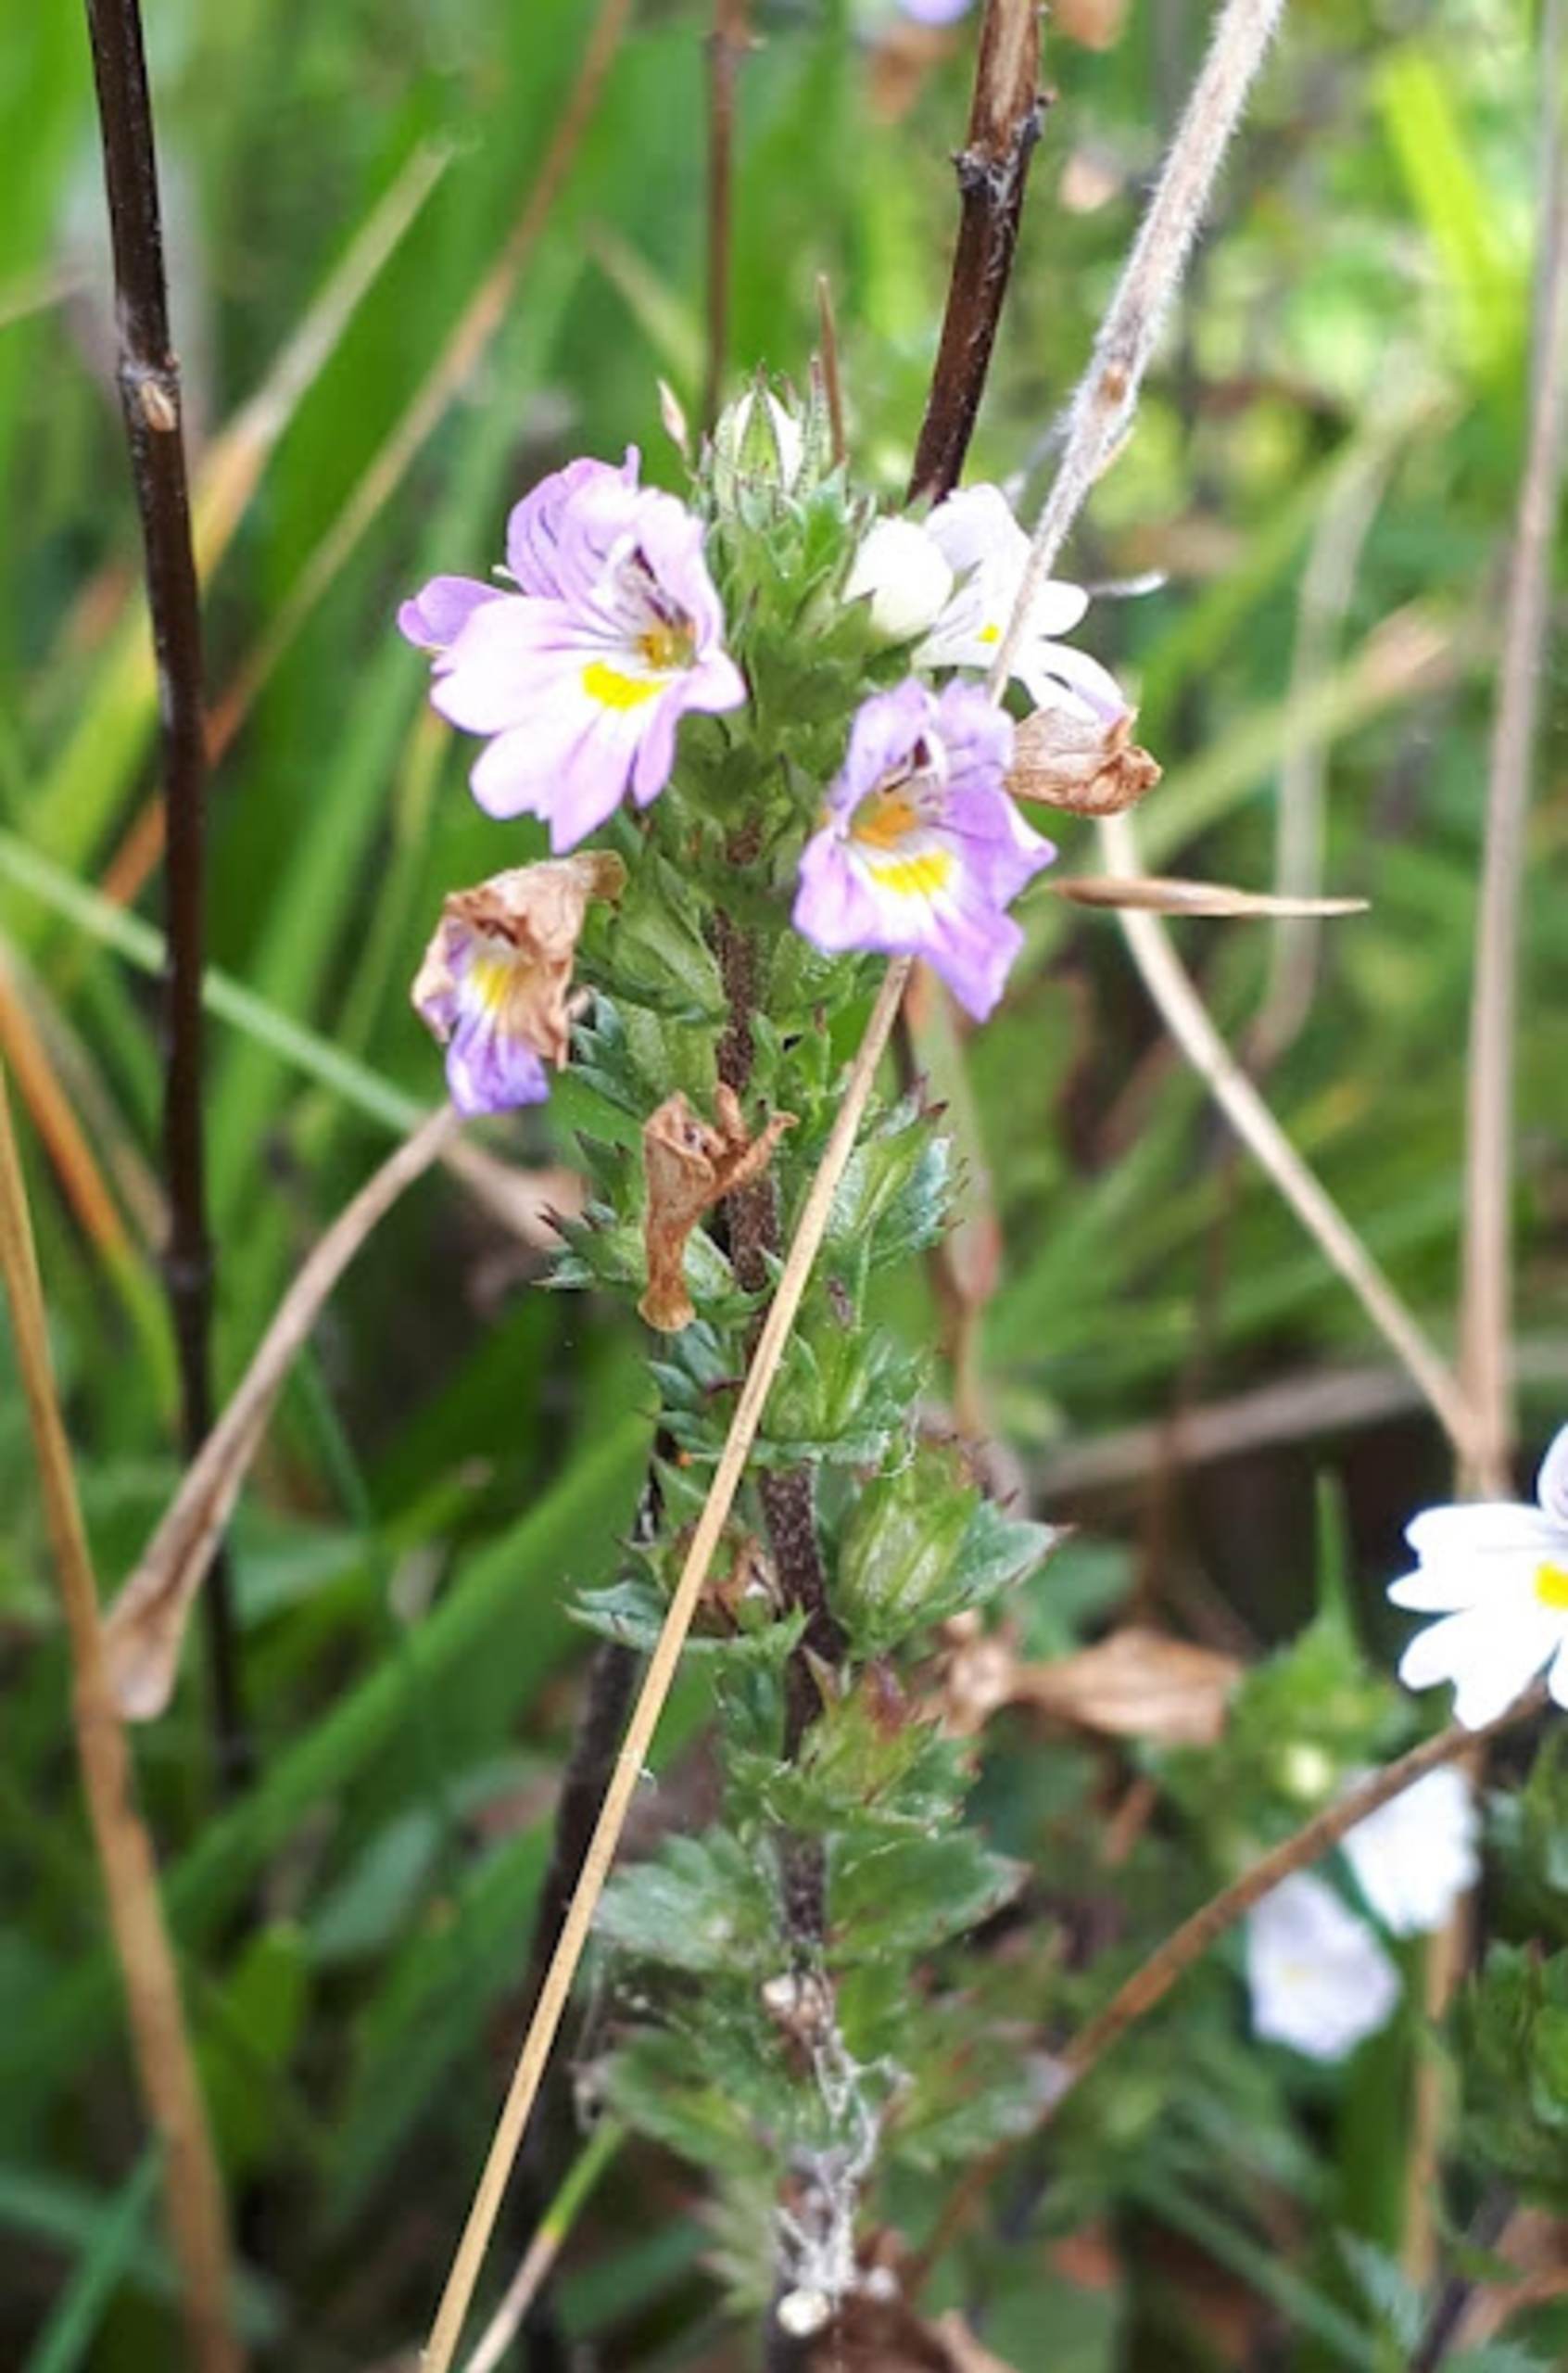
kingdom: Plantae
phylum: Tracheophyta
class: Magnoliopsida
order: Lamiales
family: Orobanchaceae
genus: Euphrasia
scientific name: Euphrasia stricta
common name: Spids øjentrøst
